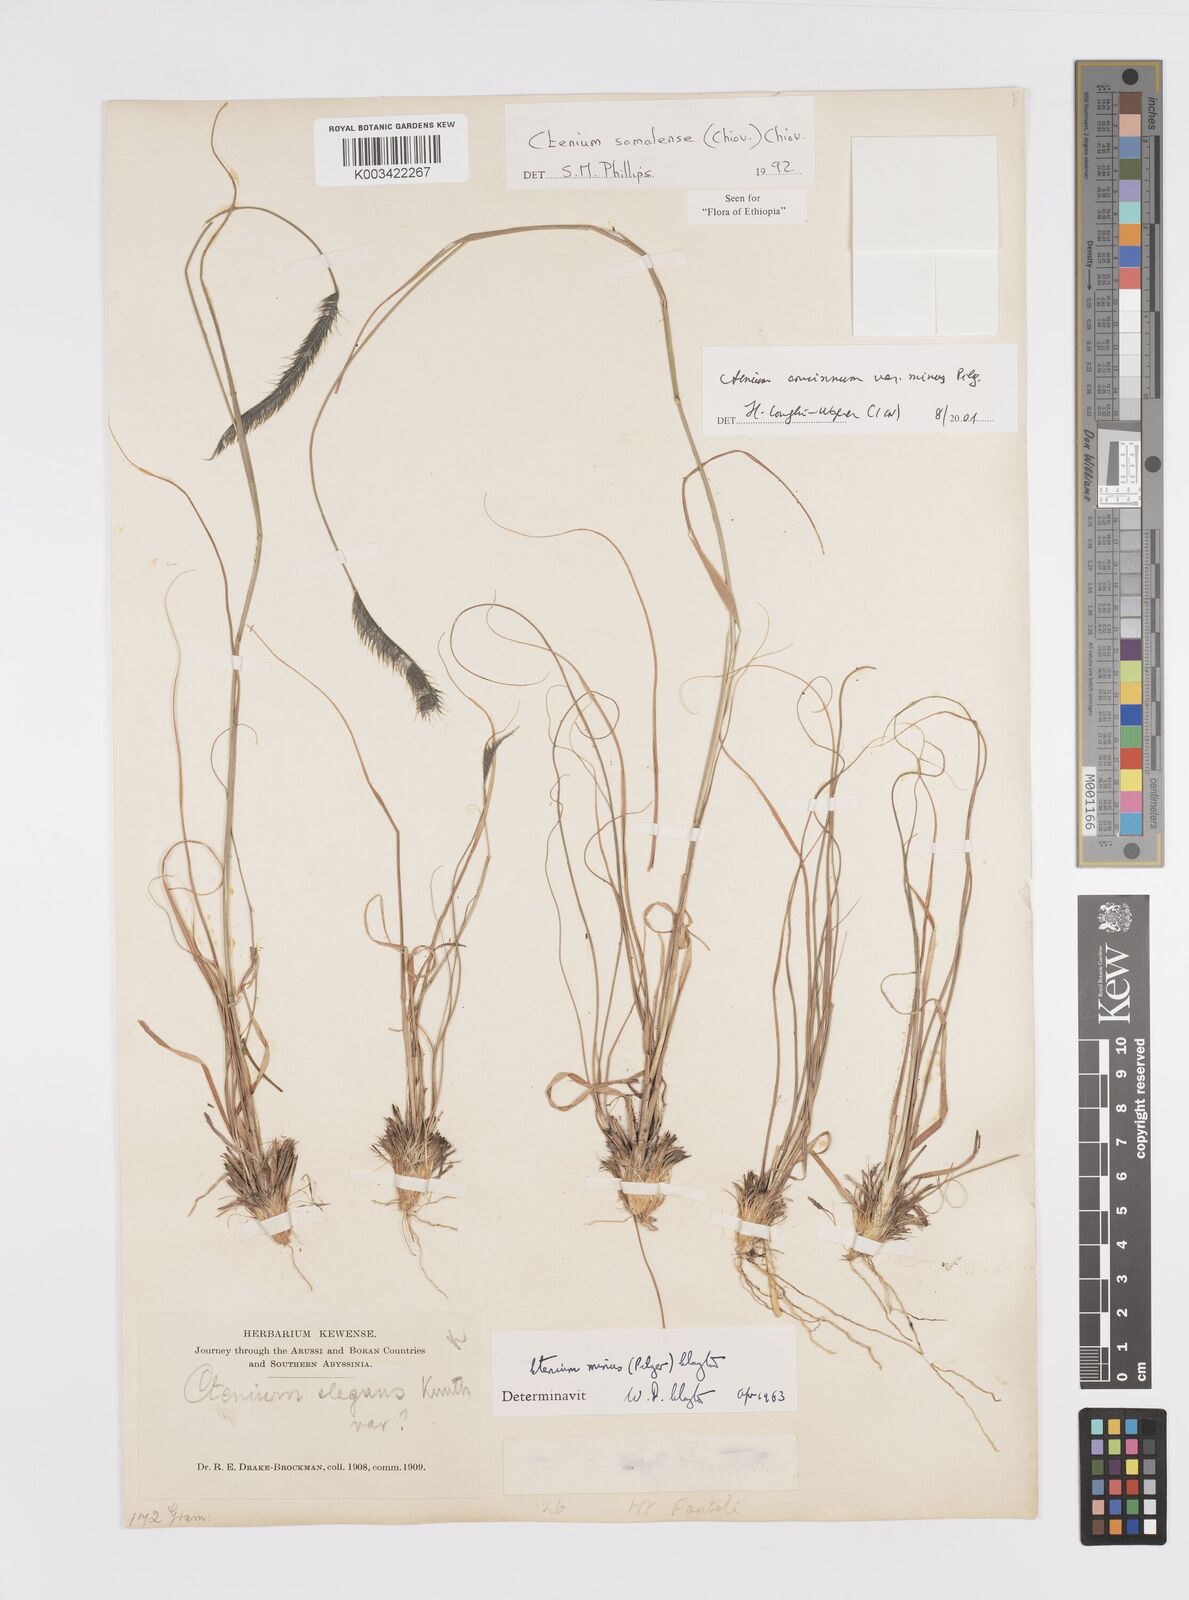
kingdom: Plantae
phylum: Tracheophyta
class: Liliopsida
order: Poales
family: Poaceae
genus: Ctenium
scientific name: Ctenium concinnum
